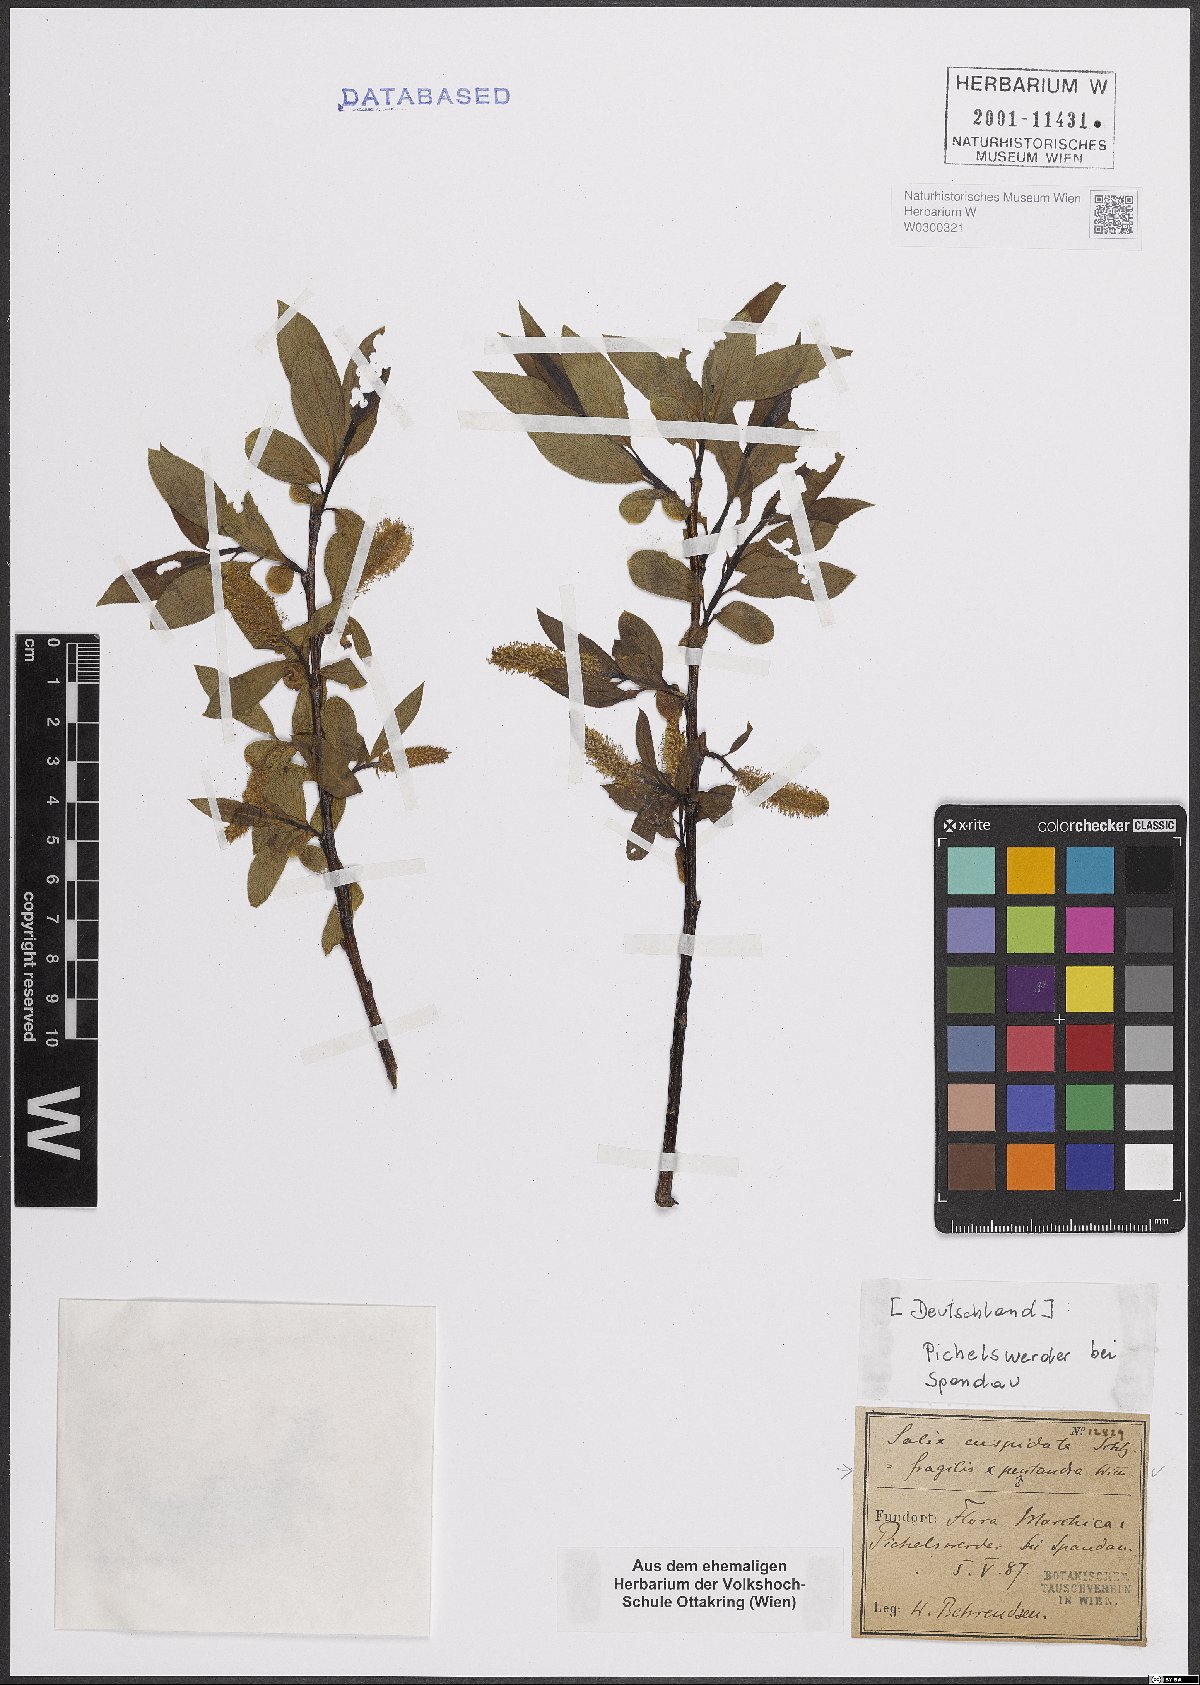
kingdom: Plantae
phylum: Tracheophyta
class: Magnoliopsida
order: Malpighiales
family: Salicaceae
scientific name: Salicaceae
